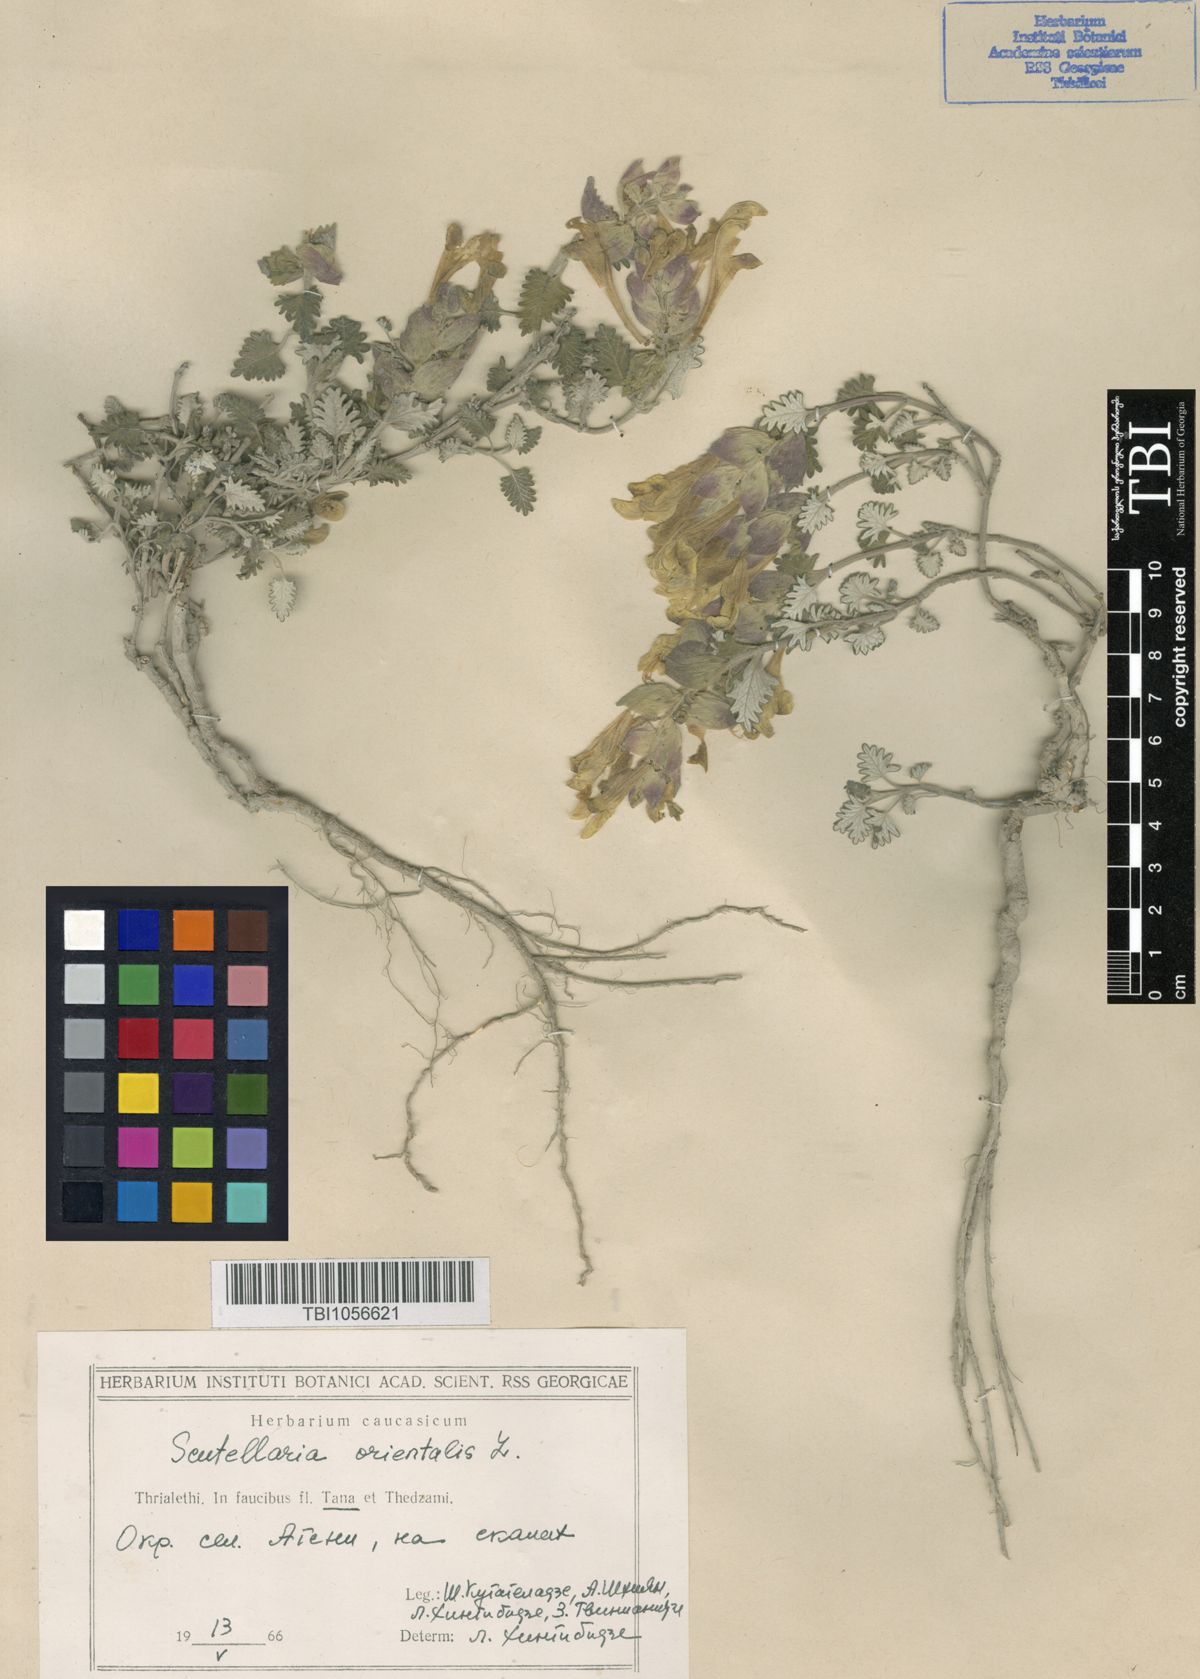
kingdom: Plantae
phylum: Tracheophyta
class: Magnoliopsida
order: Lamiales
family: Lamiaceae
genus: Scutellaria
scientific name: Scutellaria orientalis
